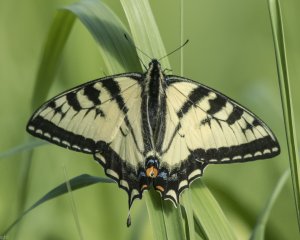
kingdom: Animalia
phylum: Arthropoda
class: Insecta
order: Lepidoptera
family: Papilionidae
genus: Pterourus
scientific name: Pterourus canadensis
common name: Canadian Tiger Swallowtail
